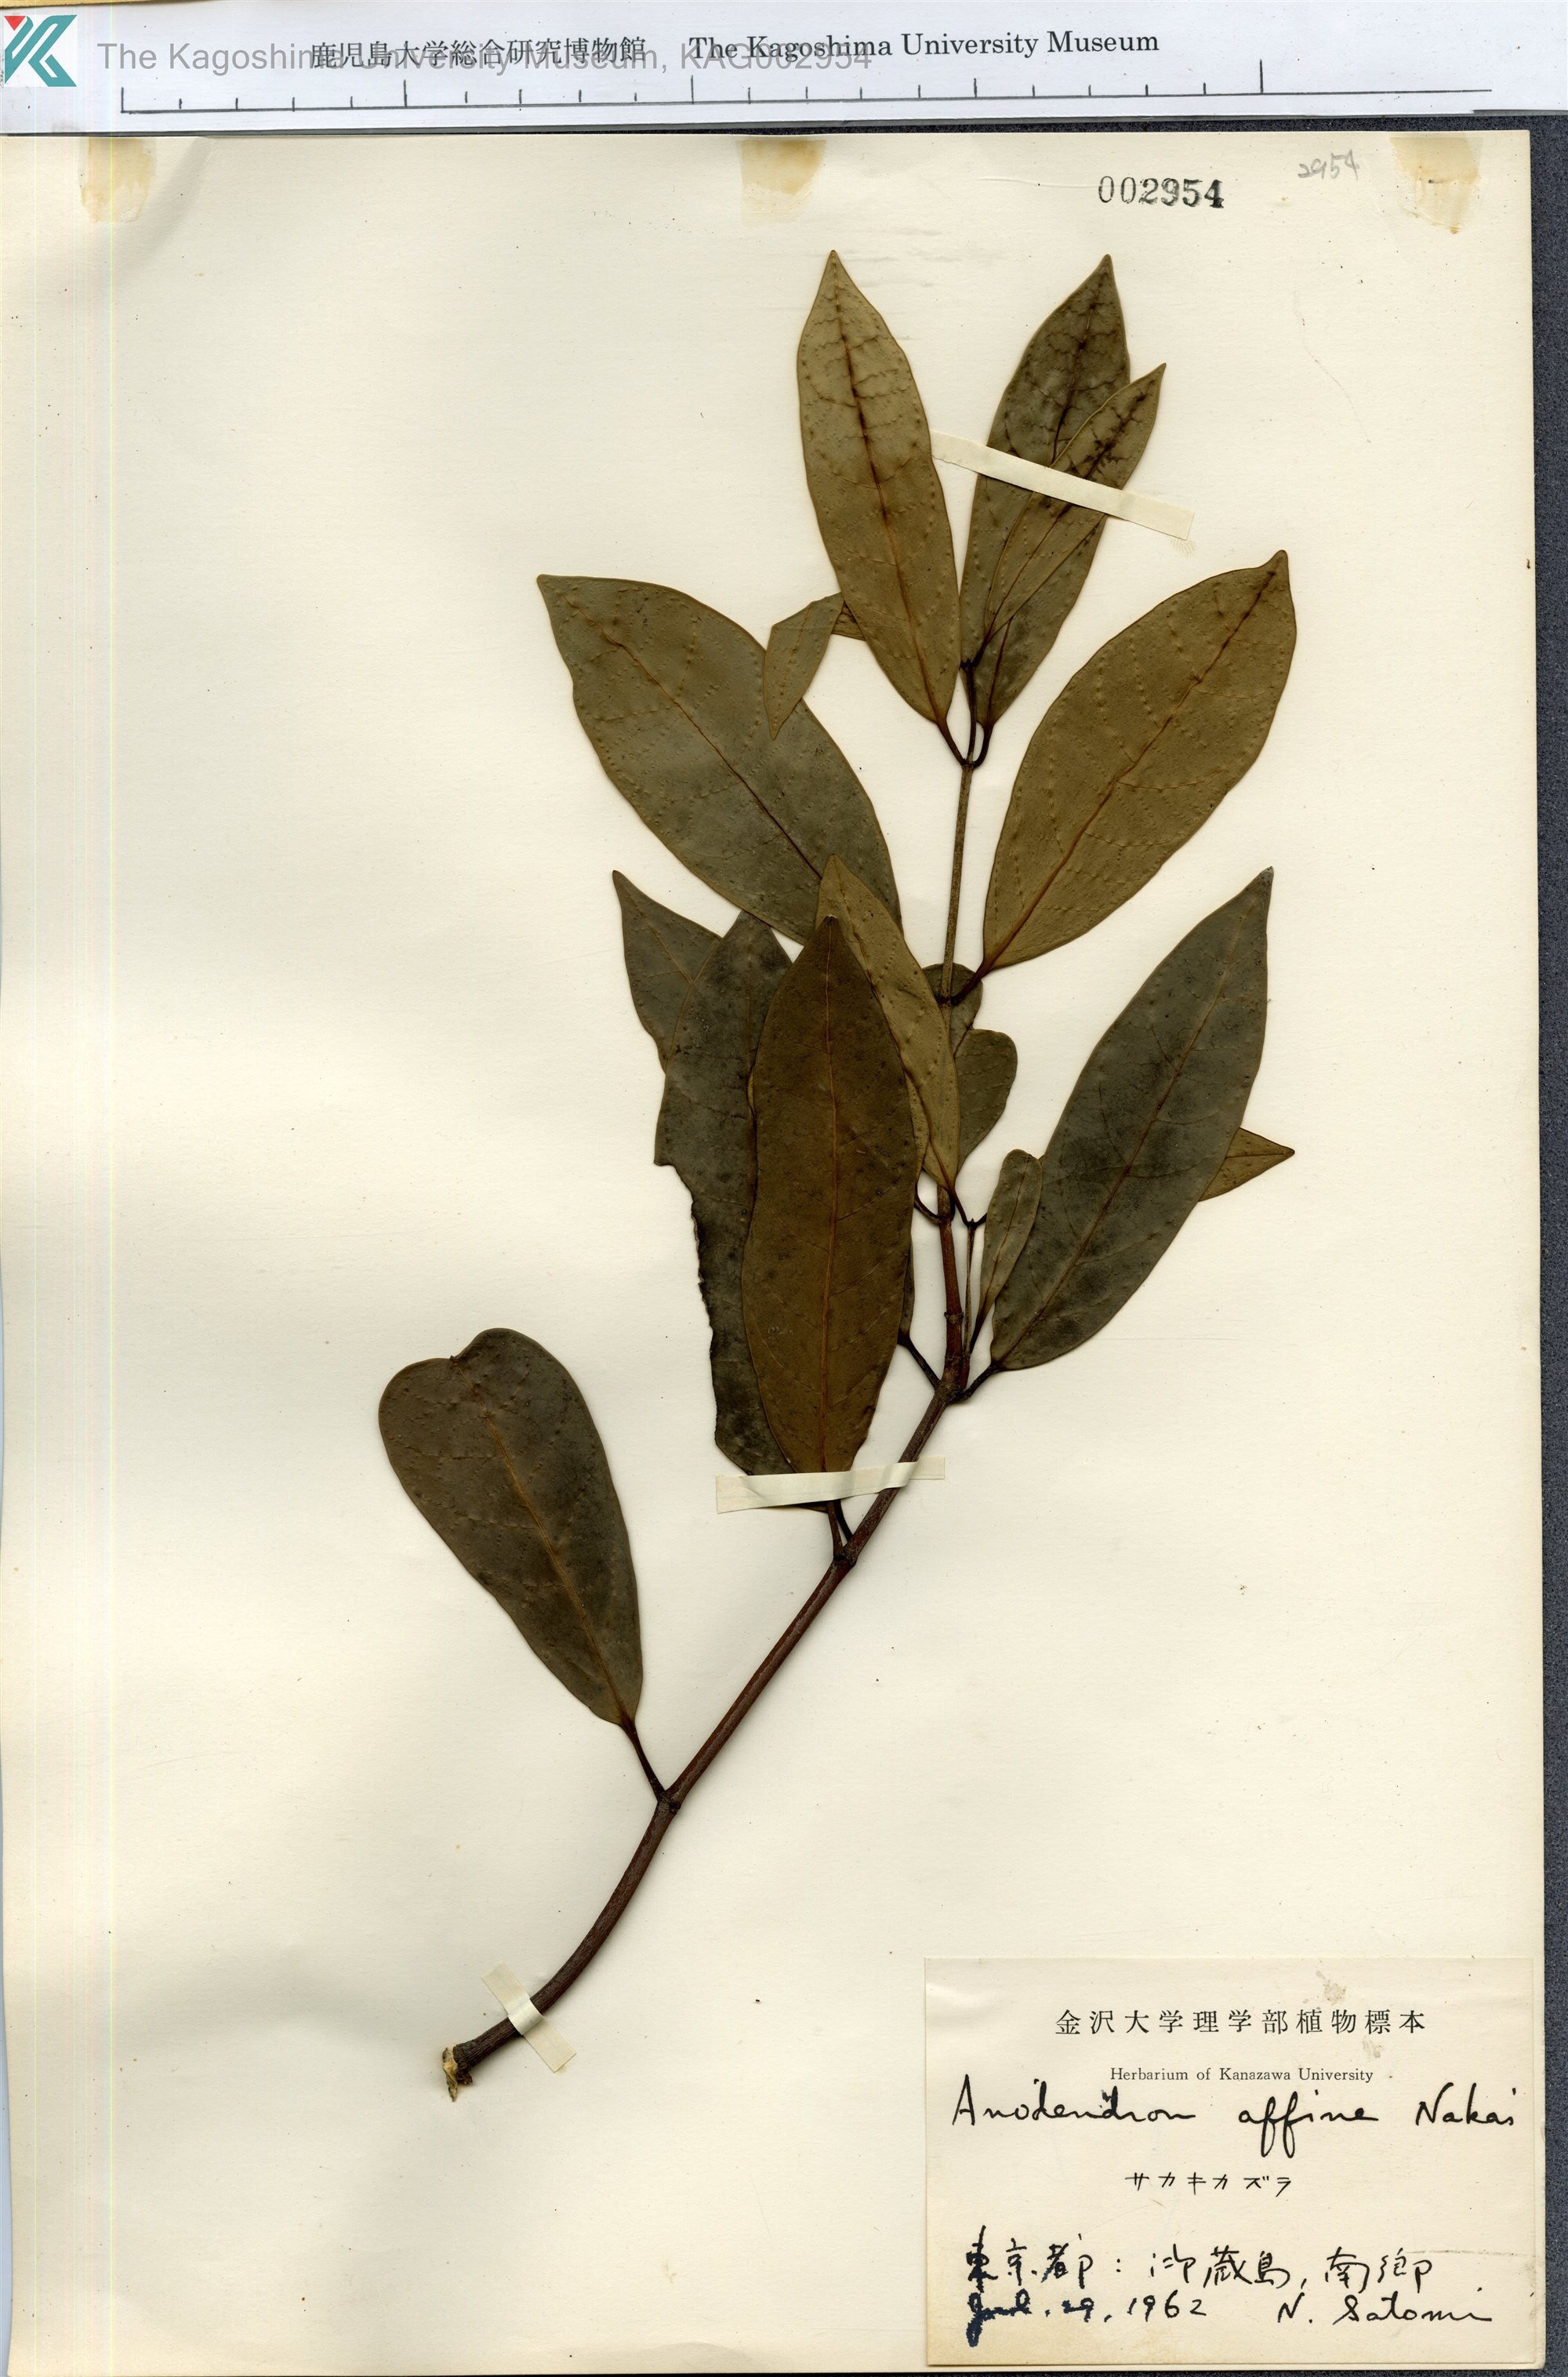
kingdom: Plantae
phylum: Tracheophyta
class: Magnoliopsida
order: Gentianales
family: Apocynaceae
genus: Anodendron
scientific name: Anodendron affine
